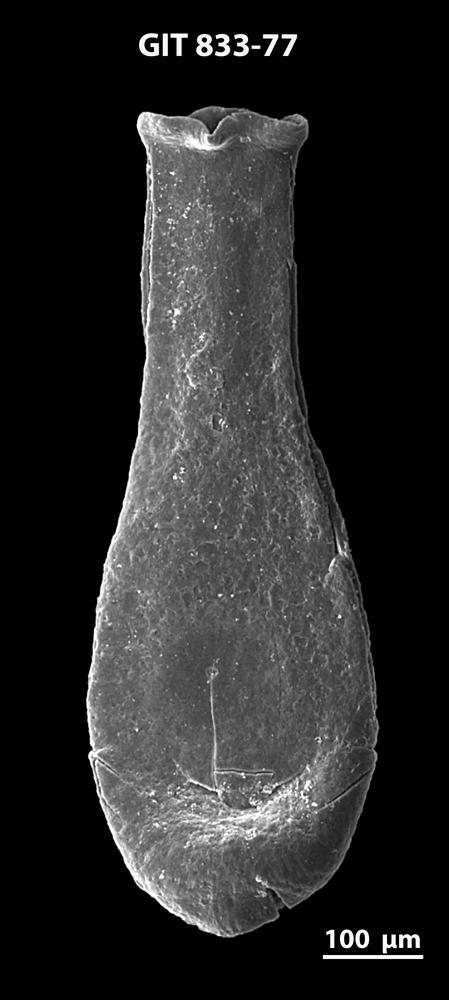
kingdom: Animalia
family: Lagenochitinidae
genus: Lagenochitina
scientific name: Lagenochitina megaesthonica
